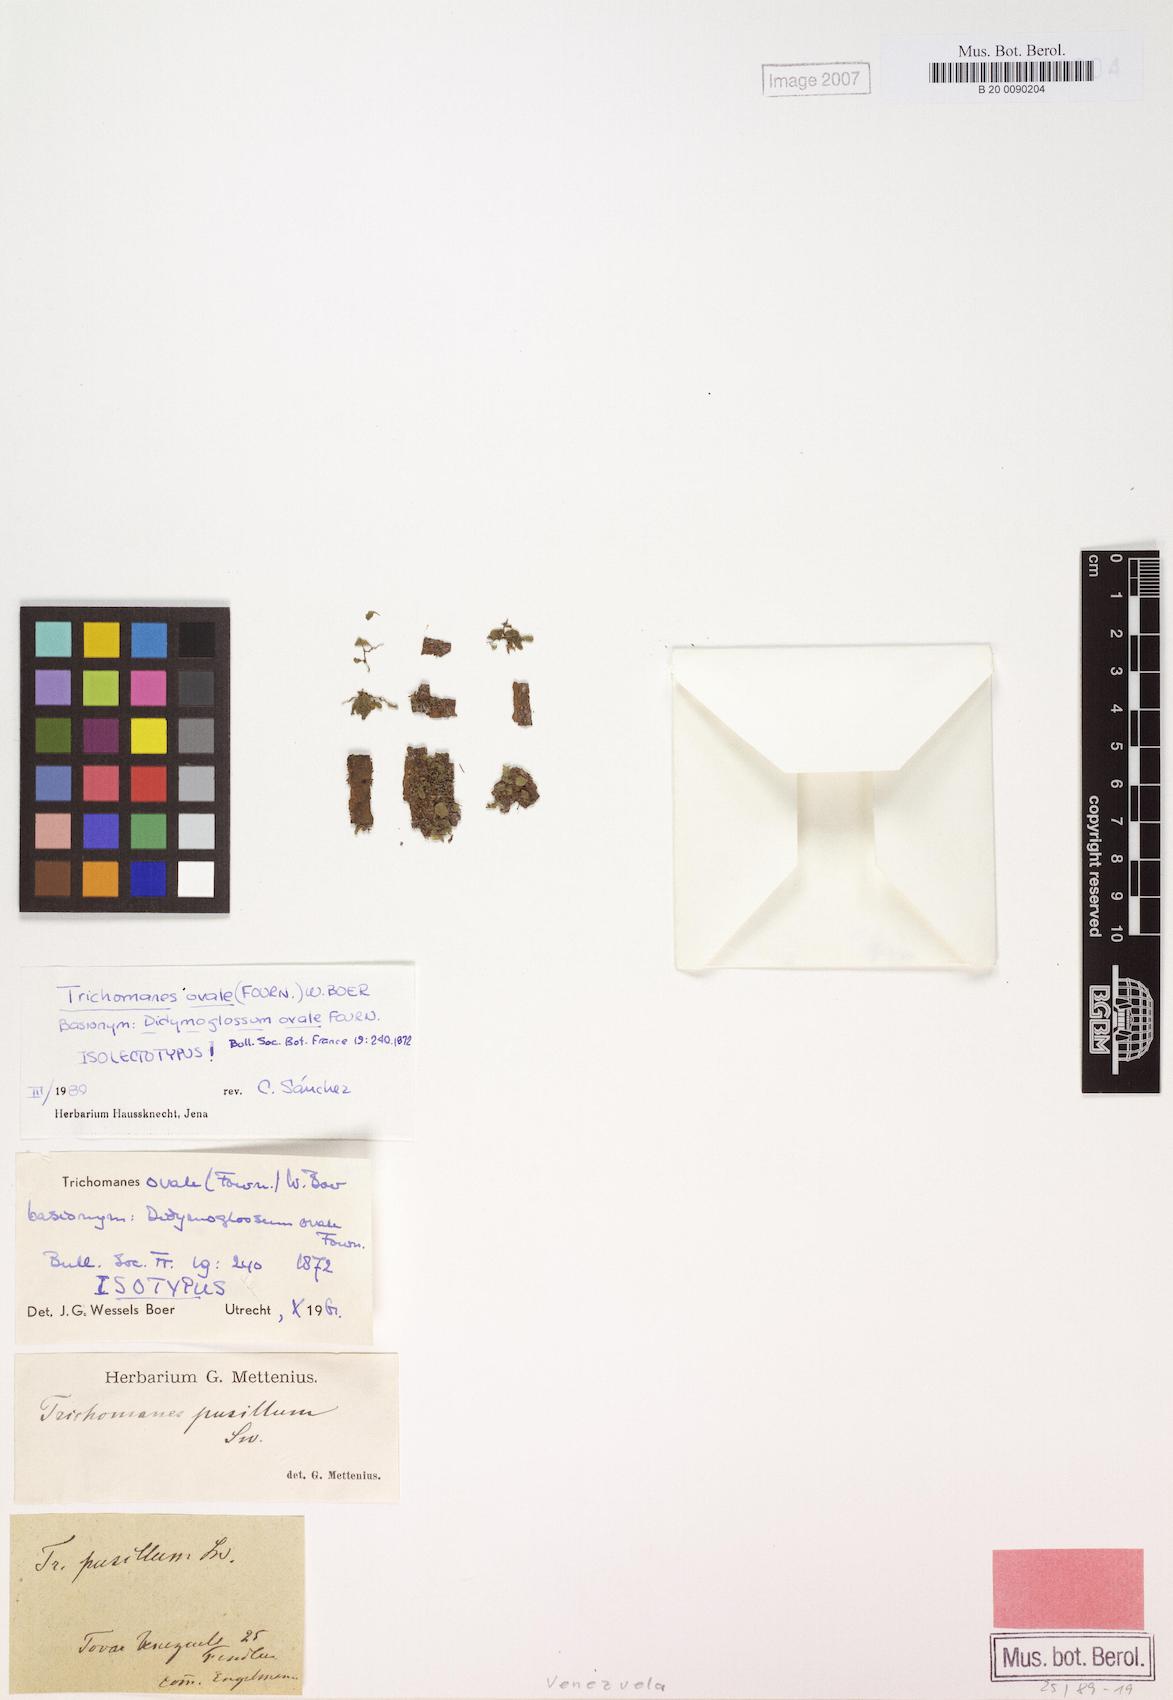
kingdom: Plantae
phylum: Tracheophyta
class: Polypodiopsida
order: Hymenophyllales
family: Hymenophyllaceae
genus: Didymoglossum
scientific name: Didymoglossum ovale
